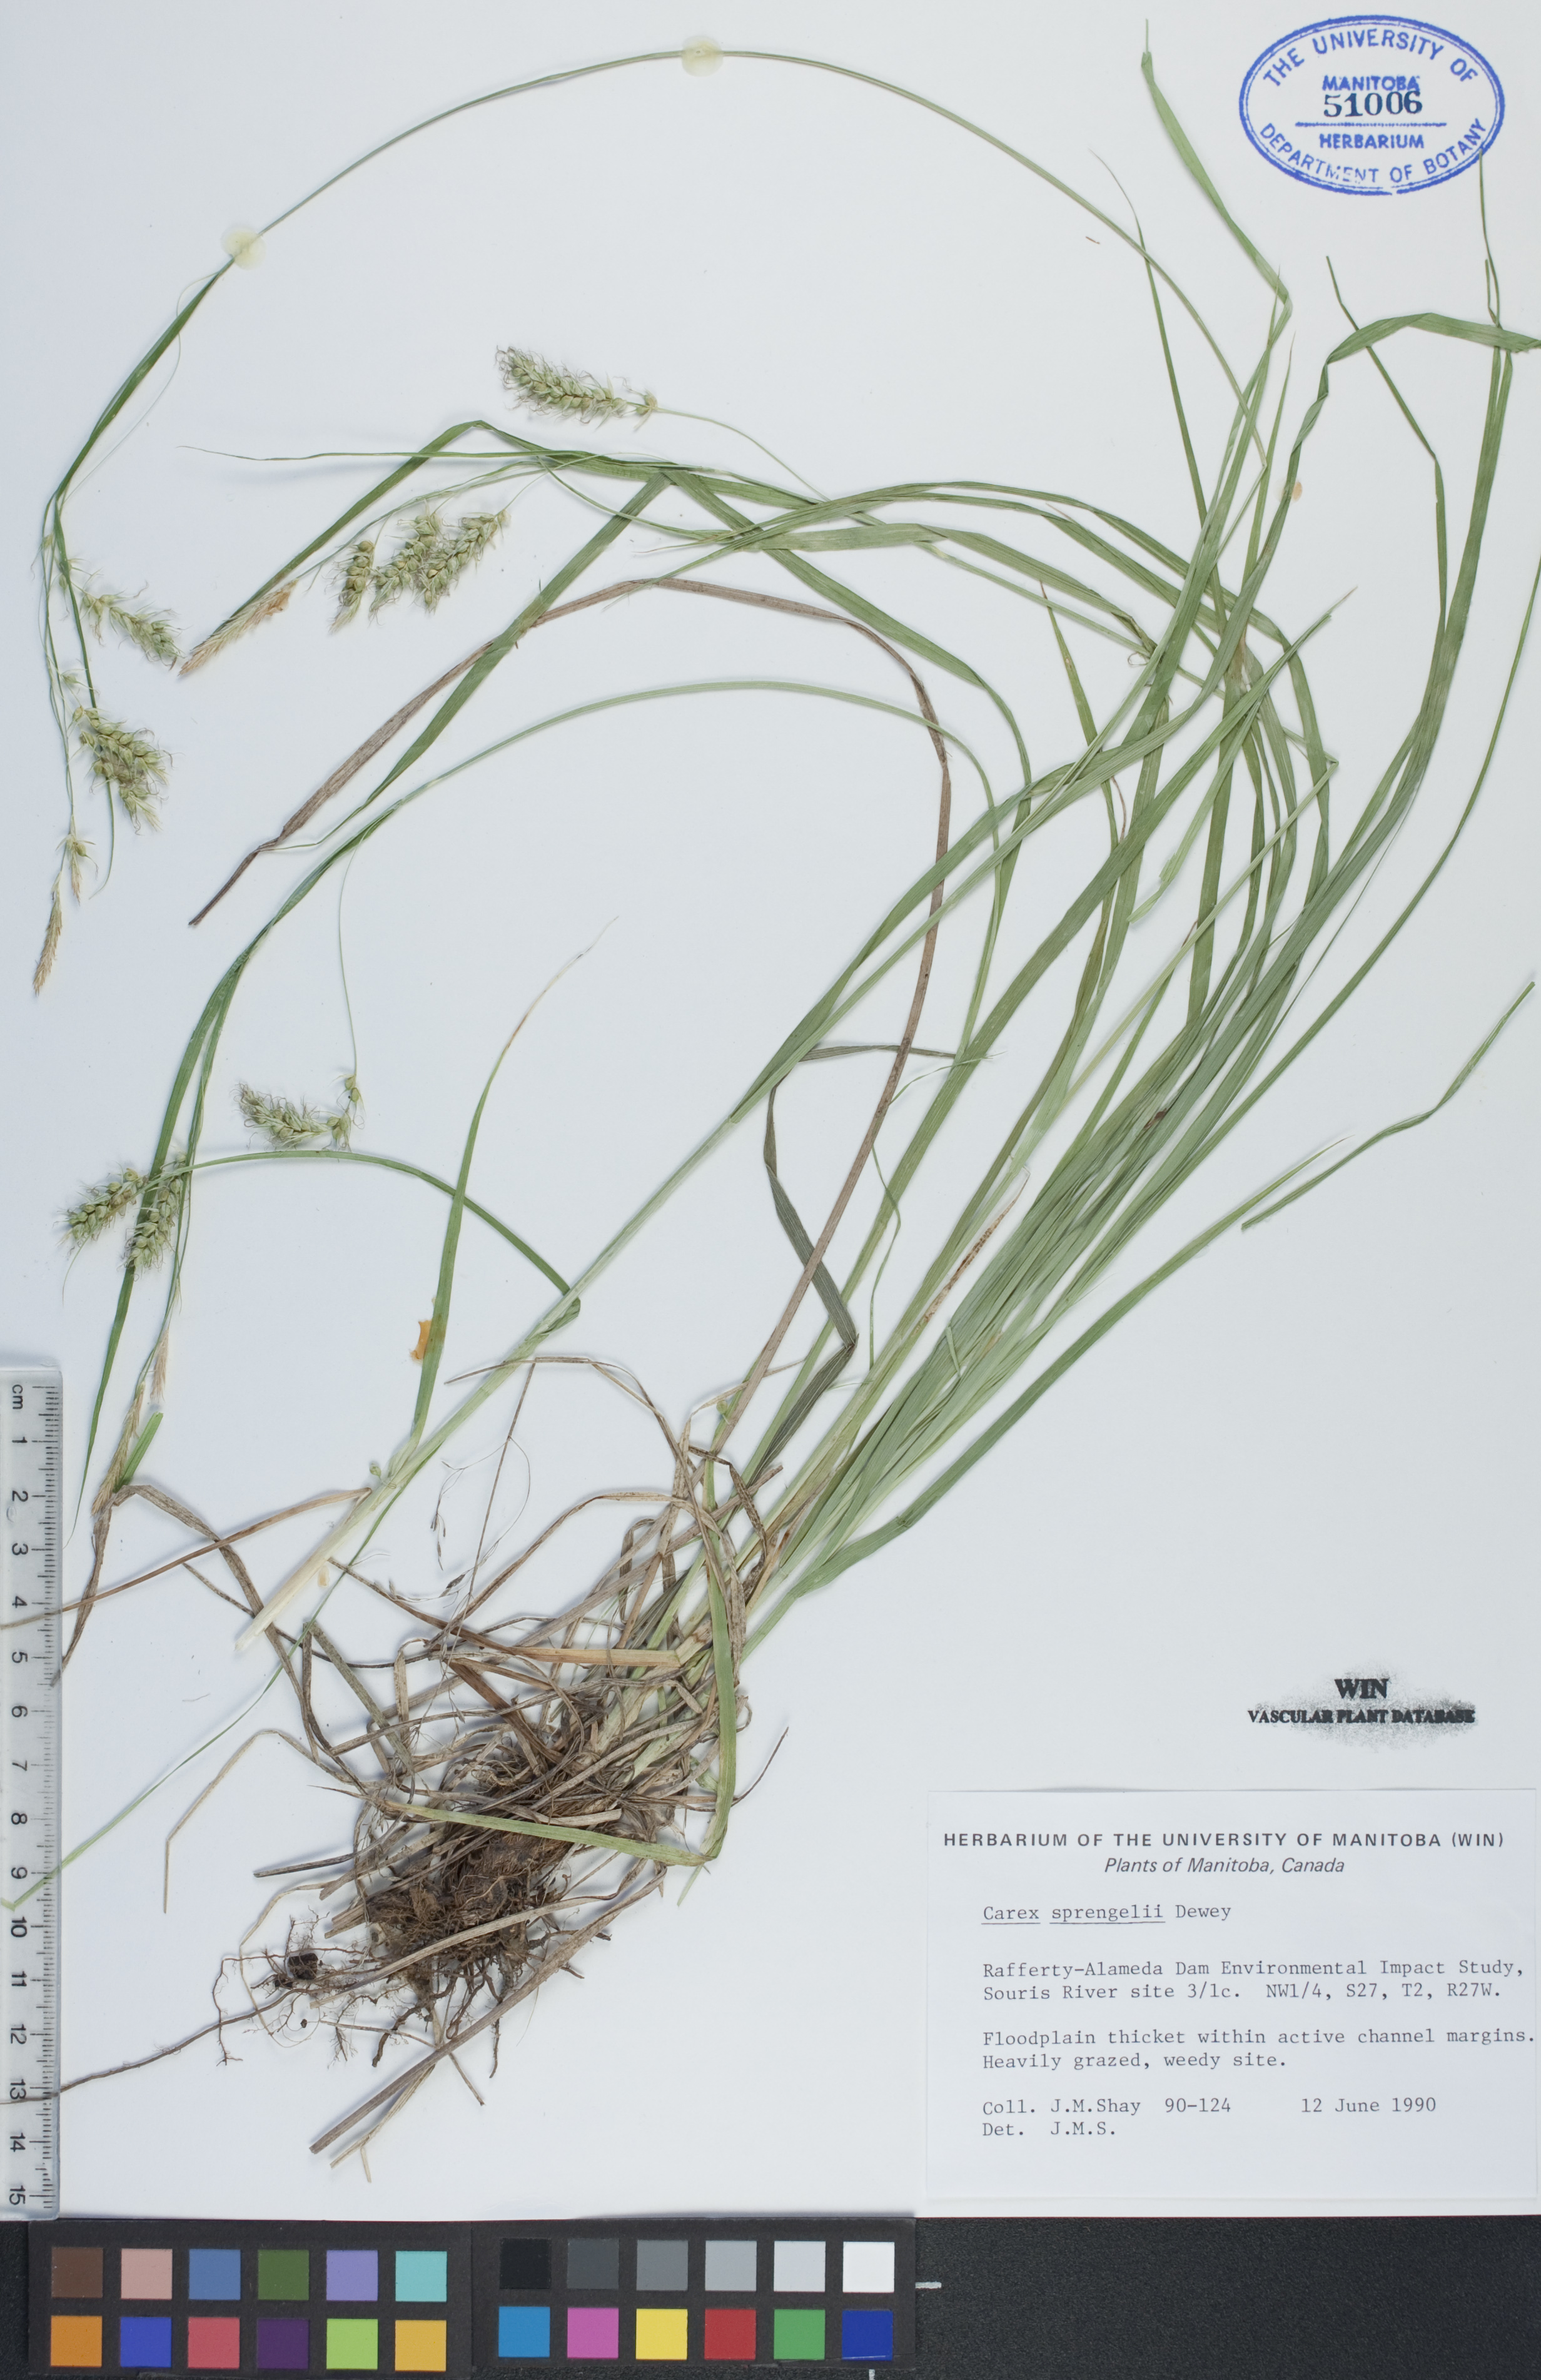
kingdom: Plantae
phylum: Tracheophyta
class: Liliopsida
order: Poales
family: Cyperaceae
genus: Carex
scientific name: Carex sprengelii
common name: Long-beaked sedge
